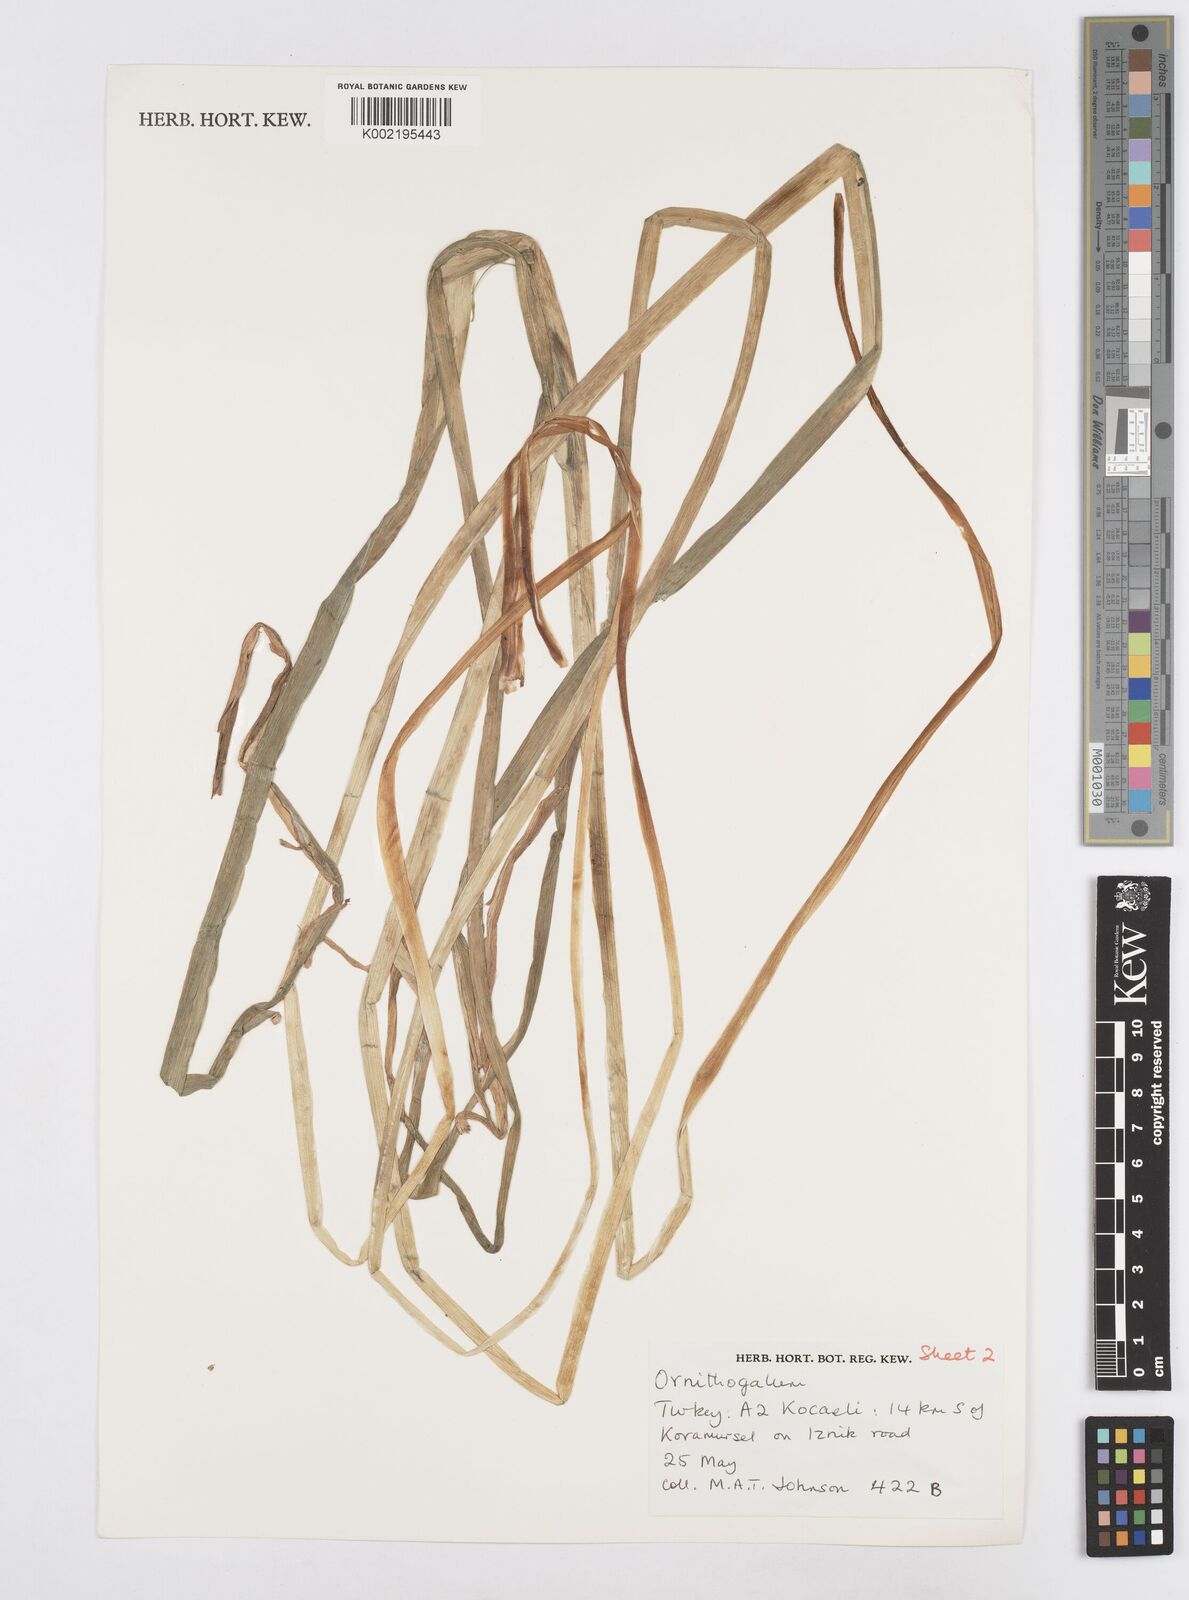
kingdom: Plantae
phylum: Tracheophyta
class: Liliopsida
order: Asparagales
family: Asparagaceae
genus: Ornithogalum
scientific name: Ornithogalum
